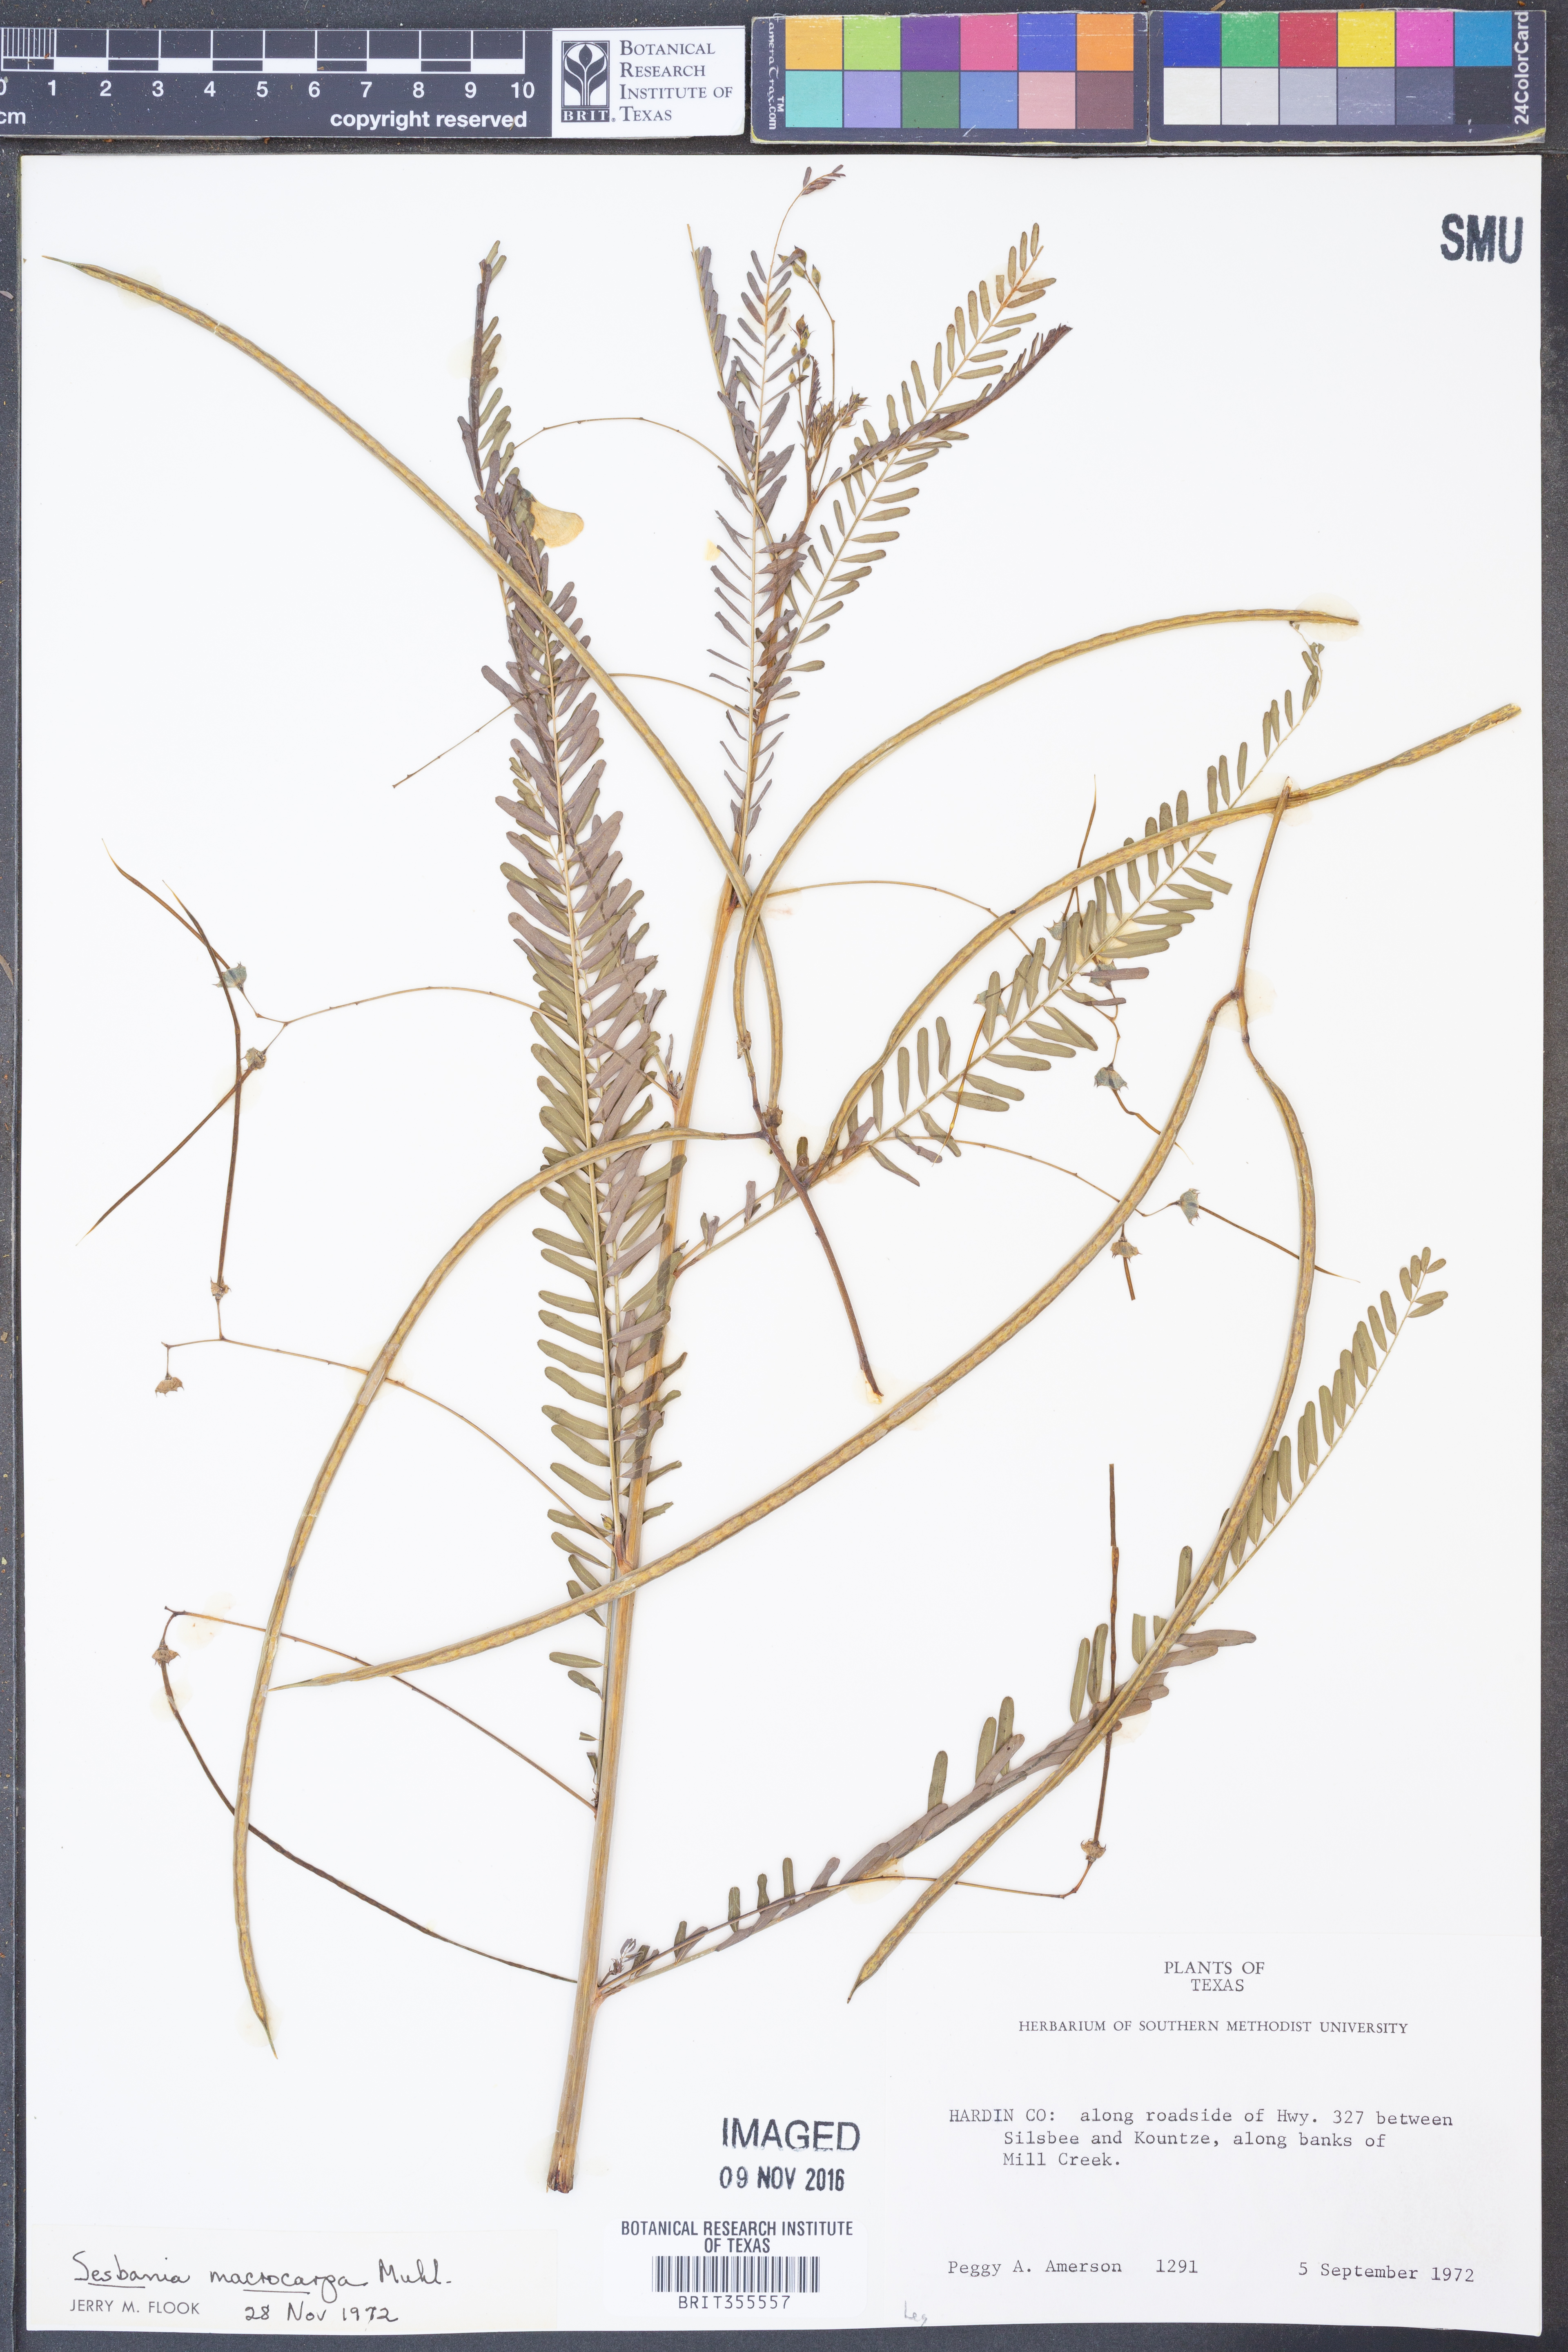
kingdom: Plantae
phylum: Tracheophyta
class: Magnoliopsida
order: Fabales
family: Fabaceae
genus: Sesbania
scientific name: Sesbania vesicaria
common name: Bagpod
